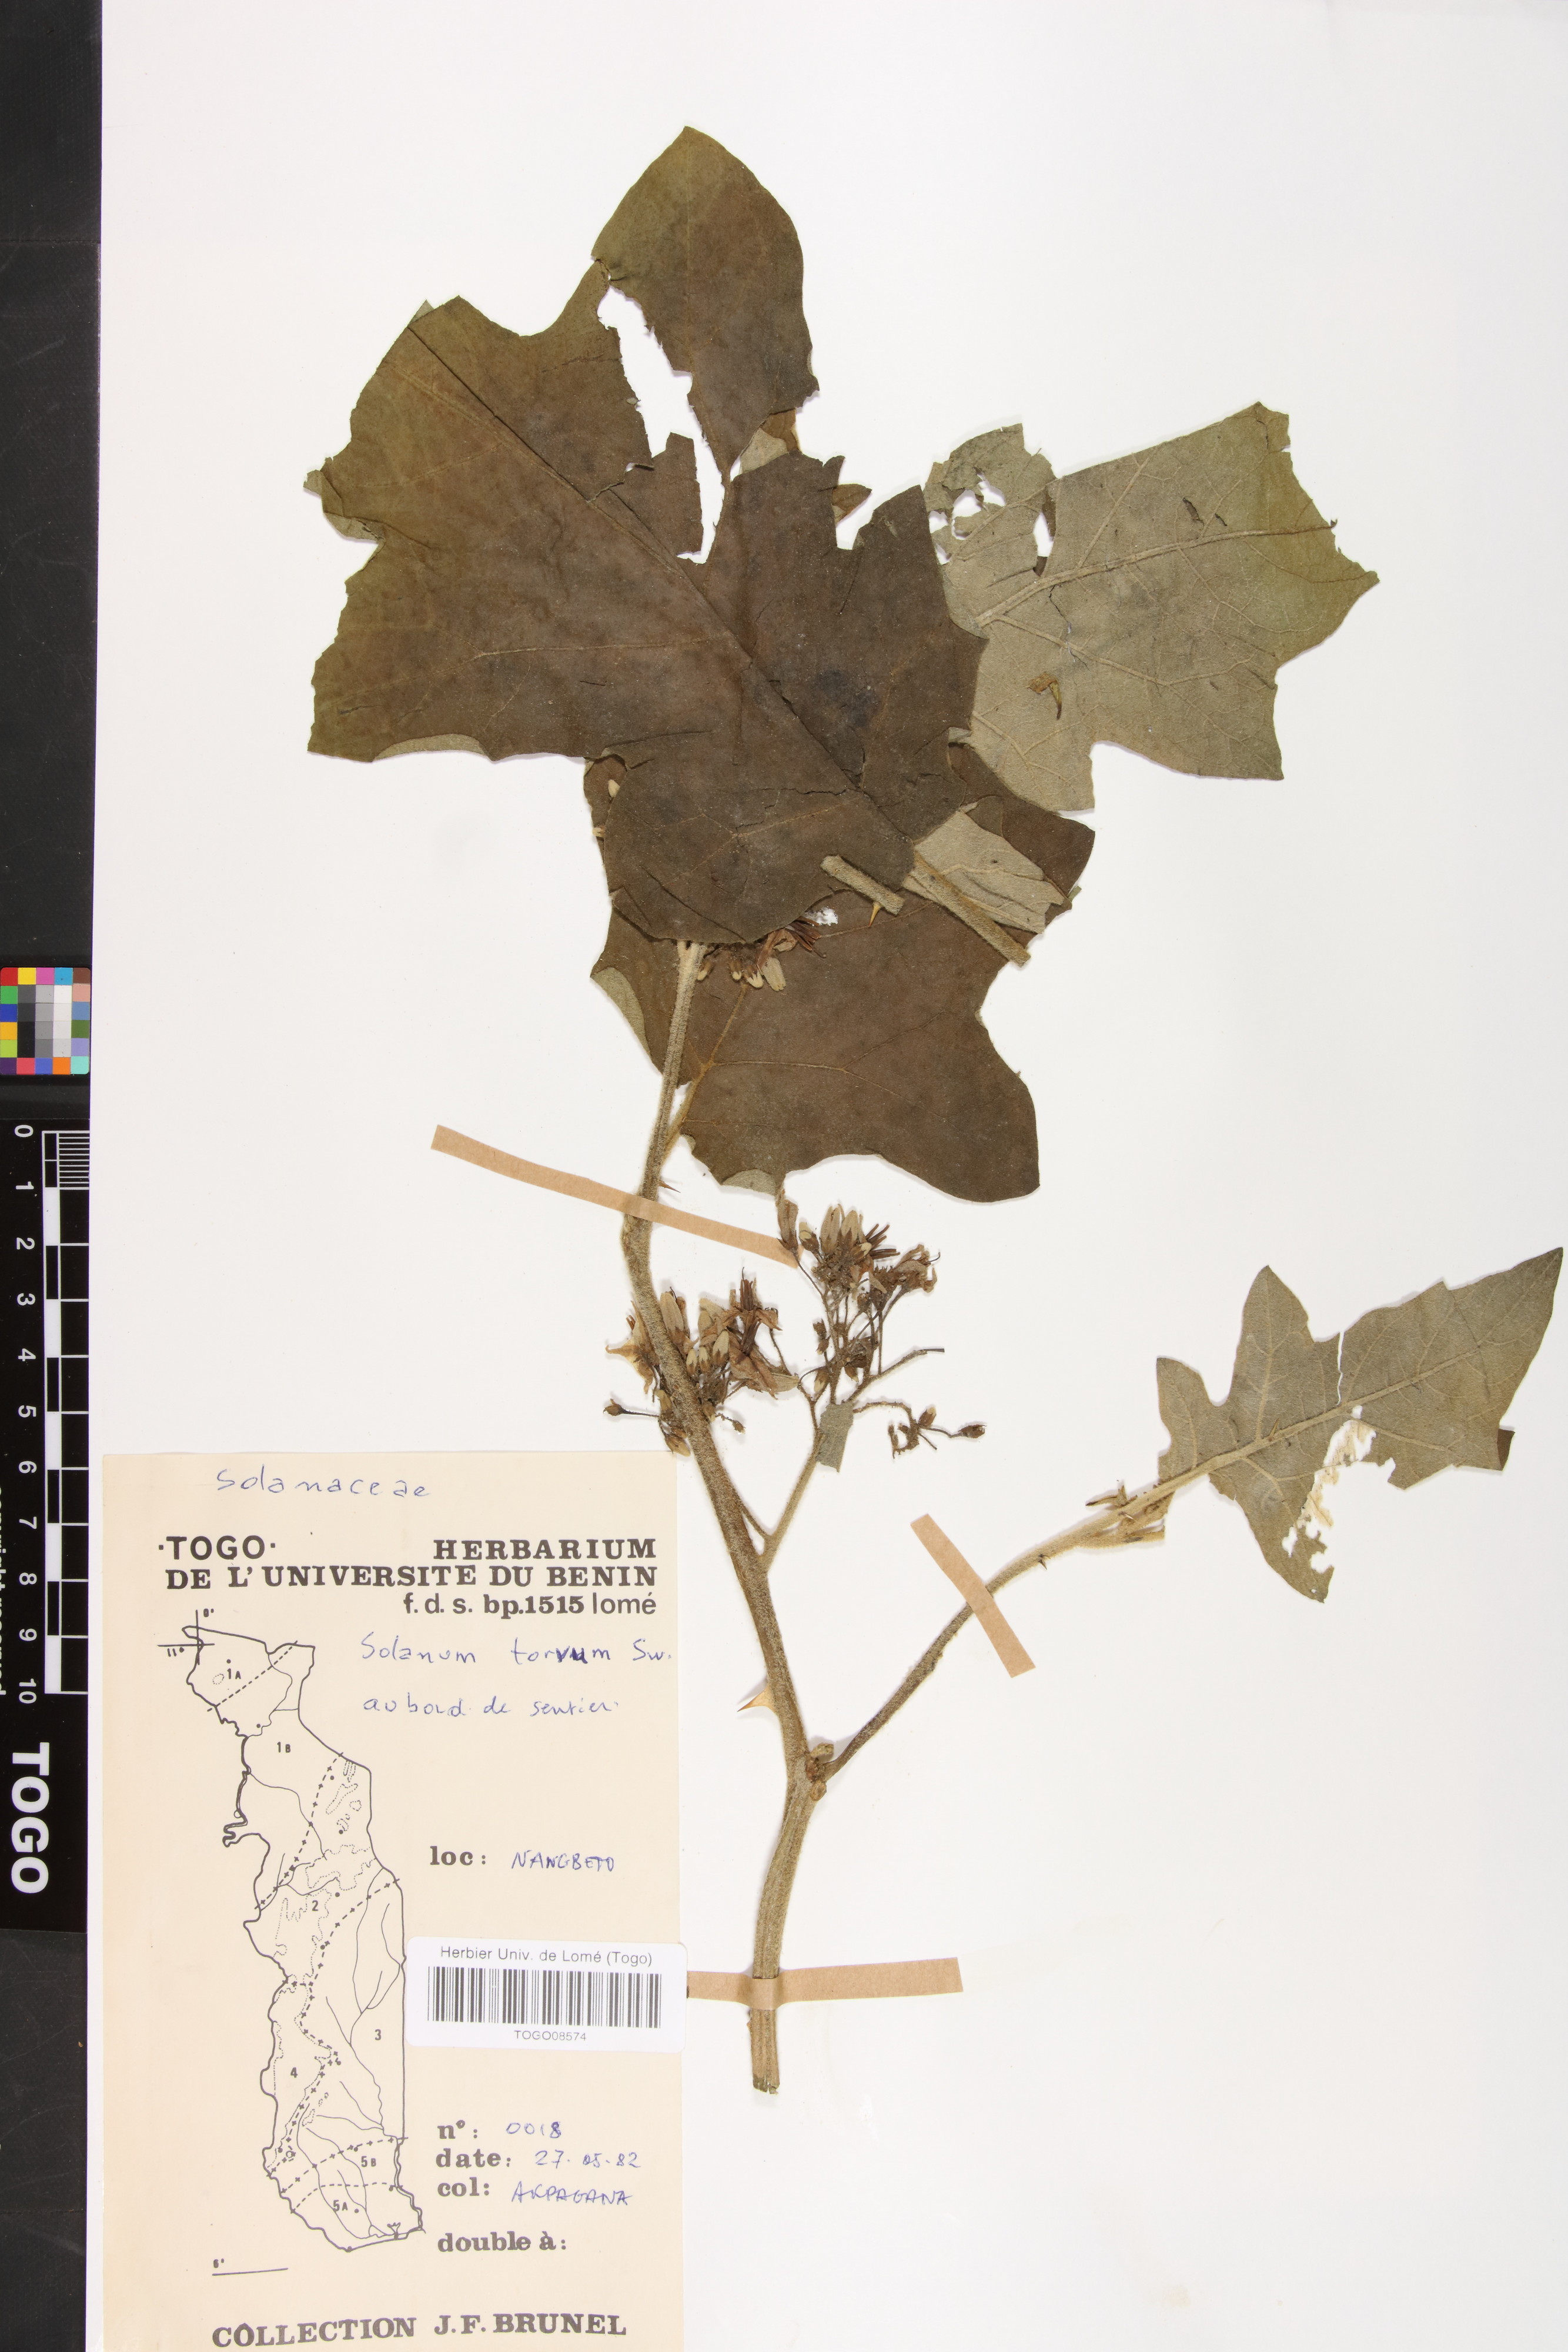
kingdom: Plantae
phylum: Tracheophyta
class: Magnoliopsida
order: Solanales
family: Solanaceae
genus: Solanum
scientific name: Solanum torvum
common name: Turkey berry
